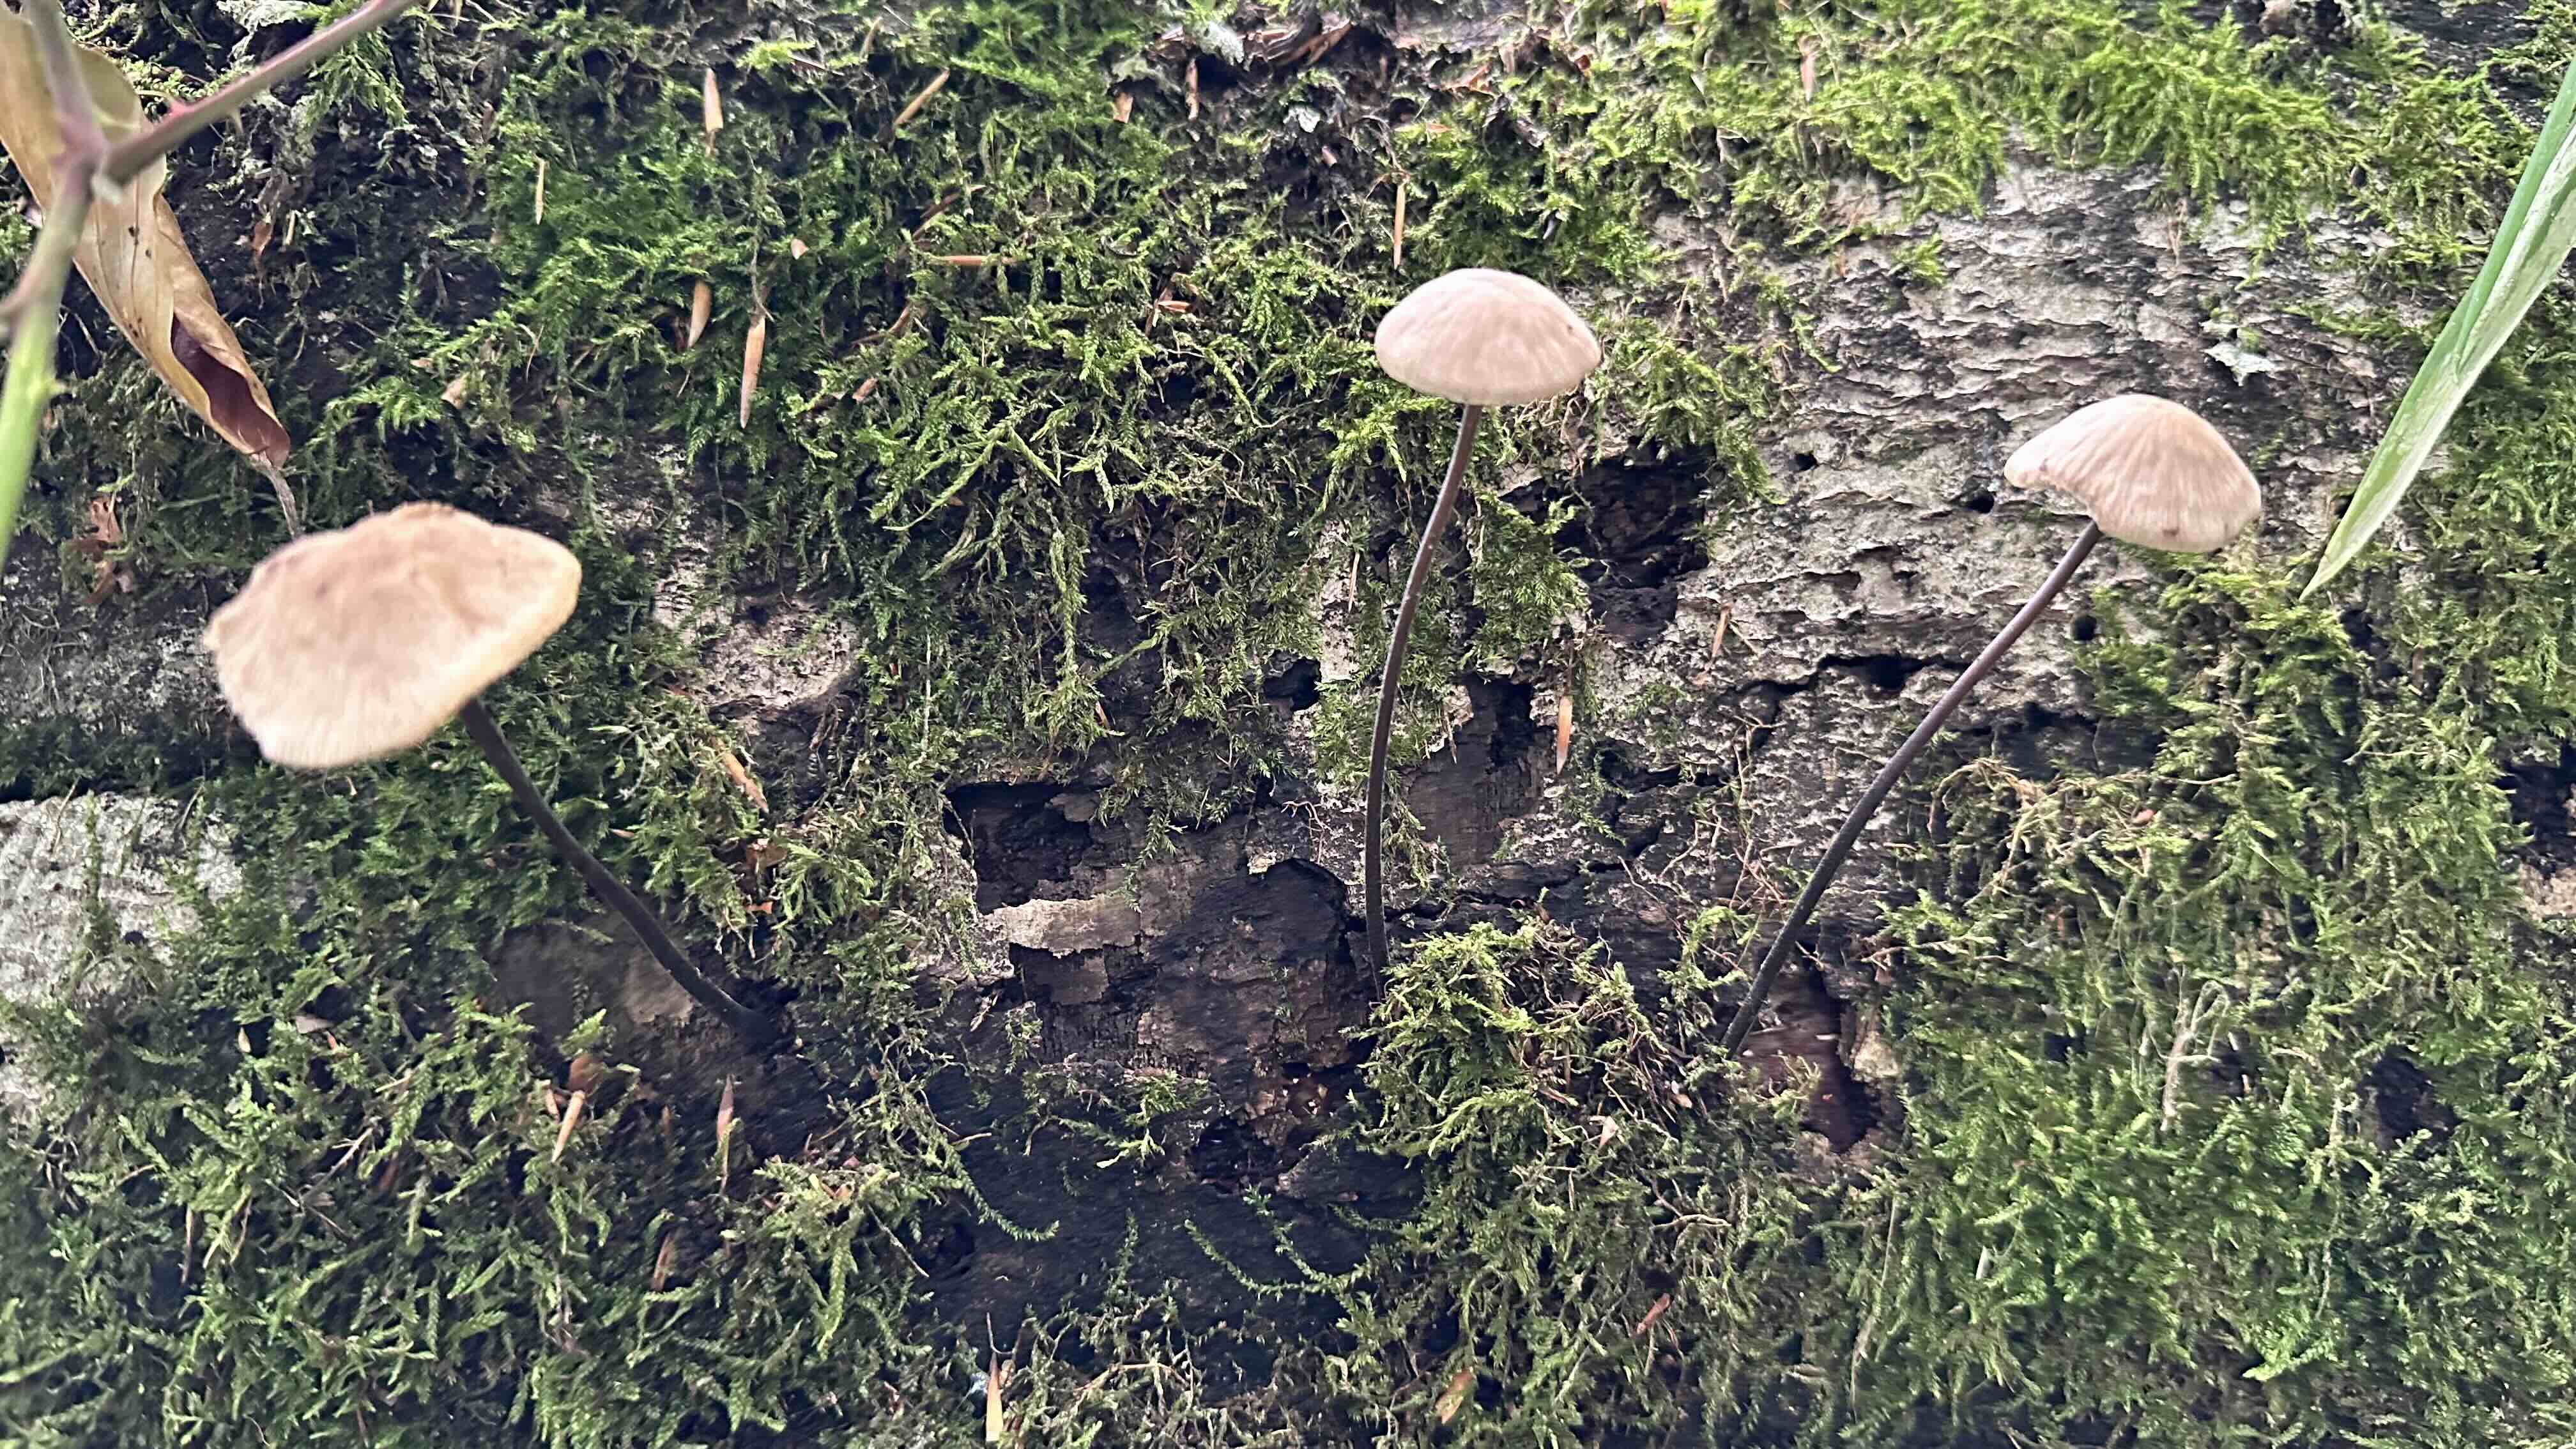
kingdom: Fungi
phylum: Basidiomycota
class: Agaricomycetes
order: Agaricales
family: Omphalotaceae
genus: Mycetinis
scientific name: Mycetinis alliaceus
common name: stor løghat
